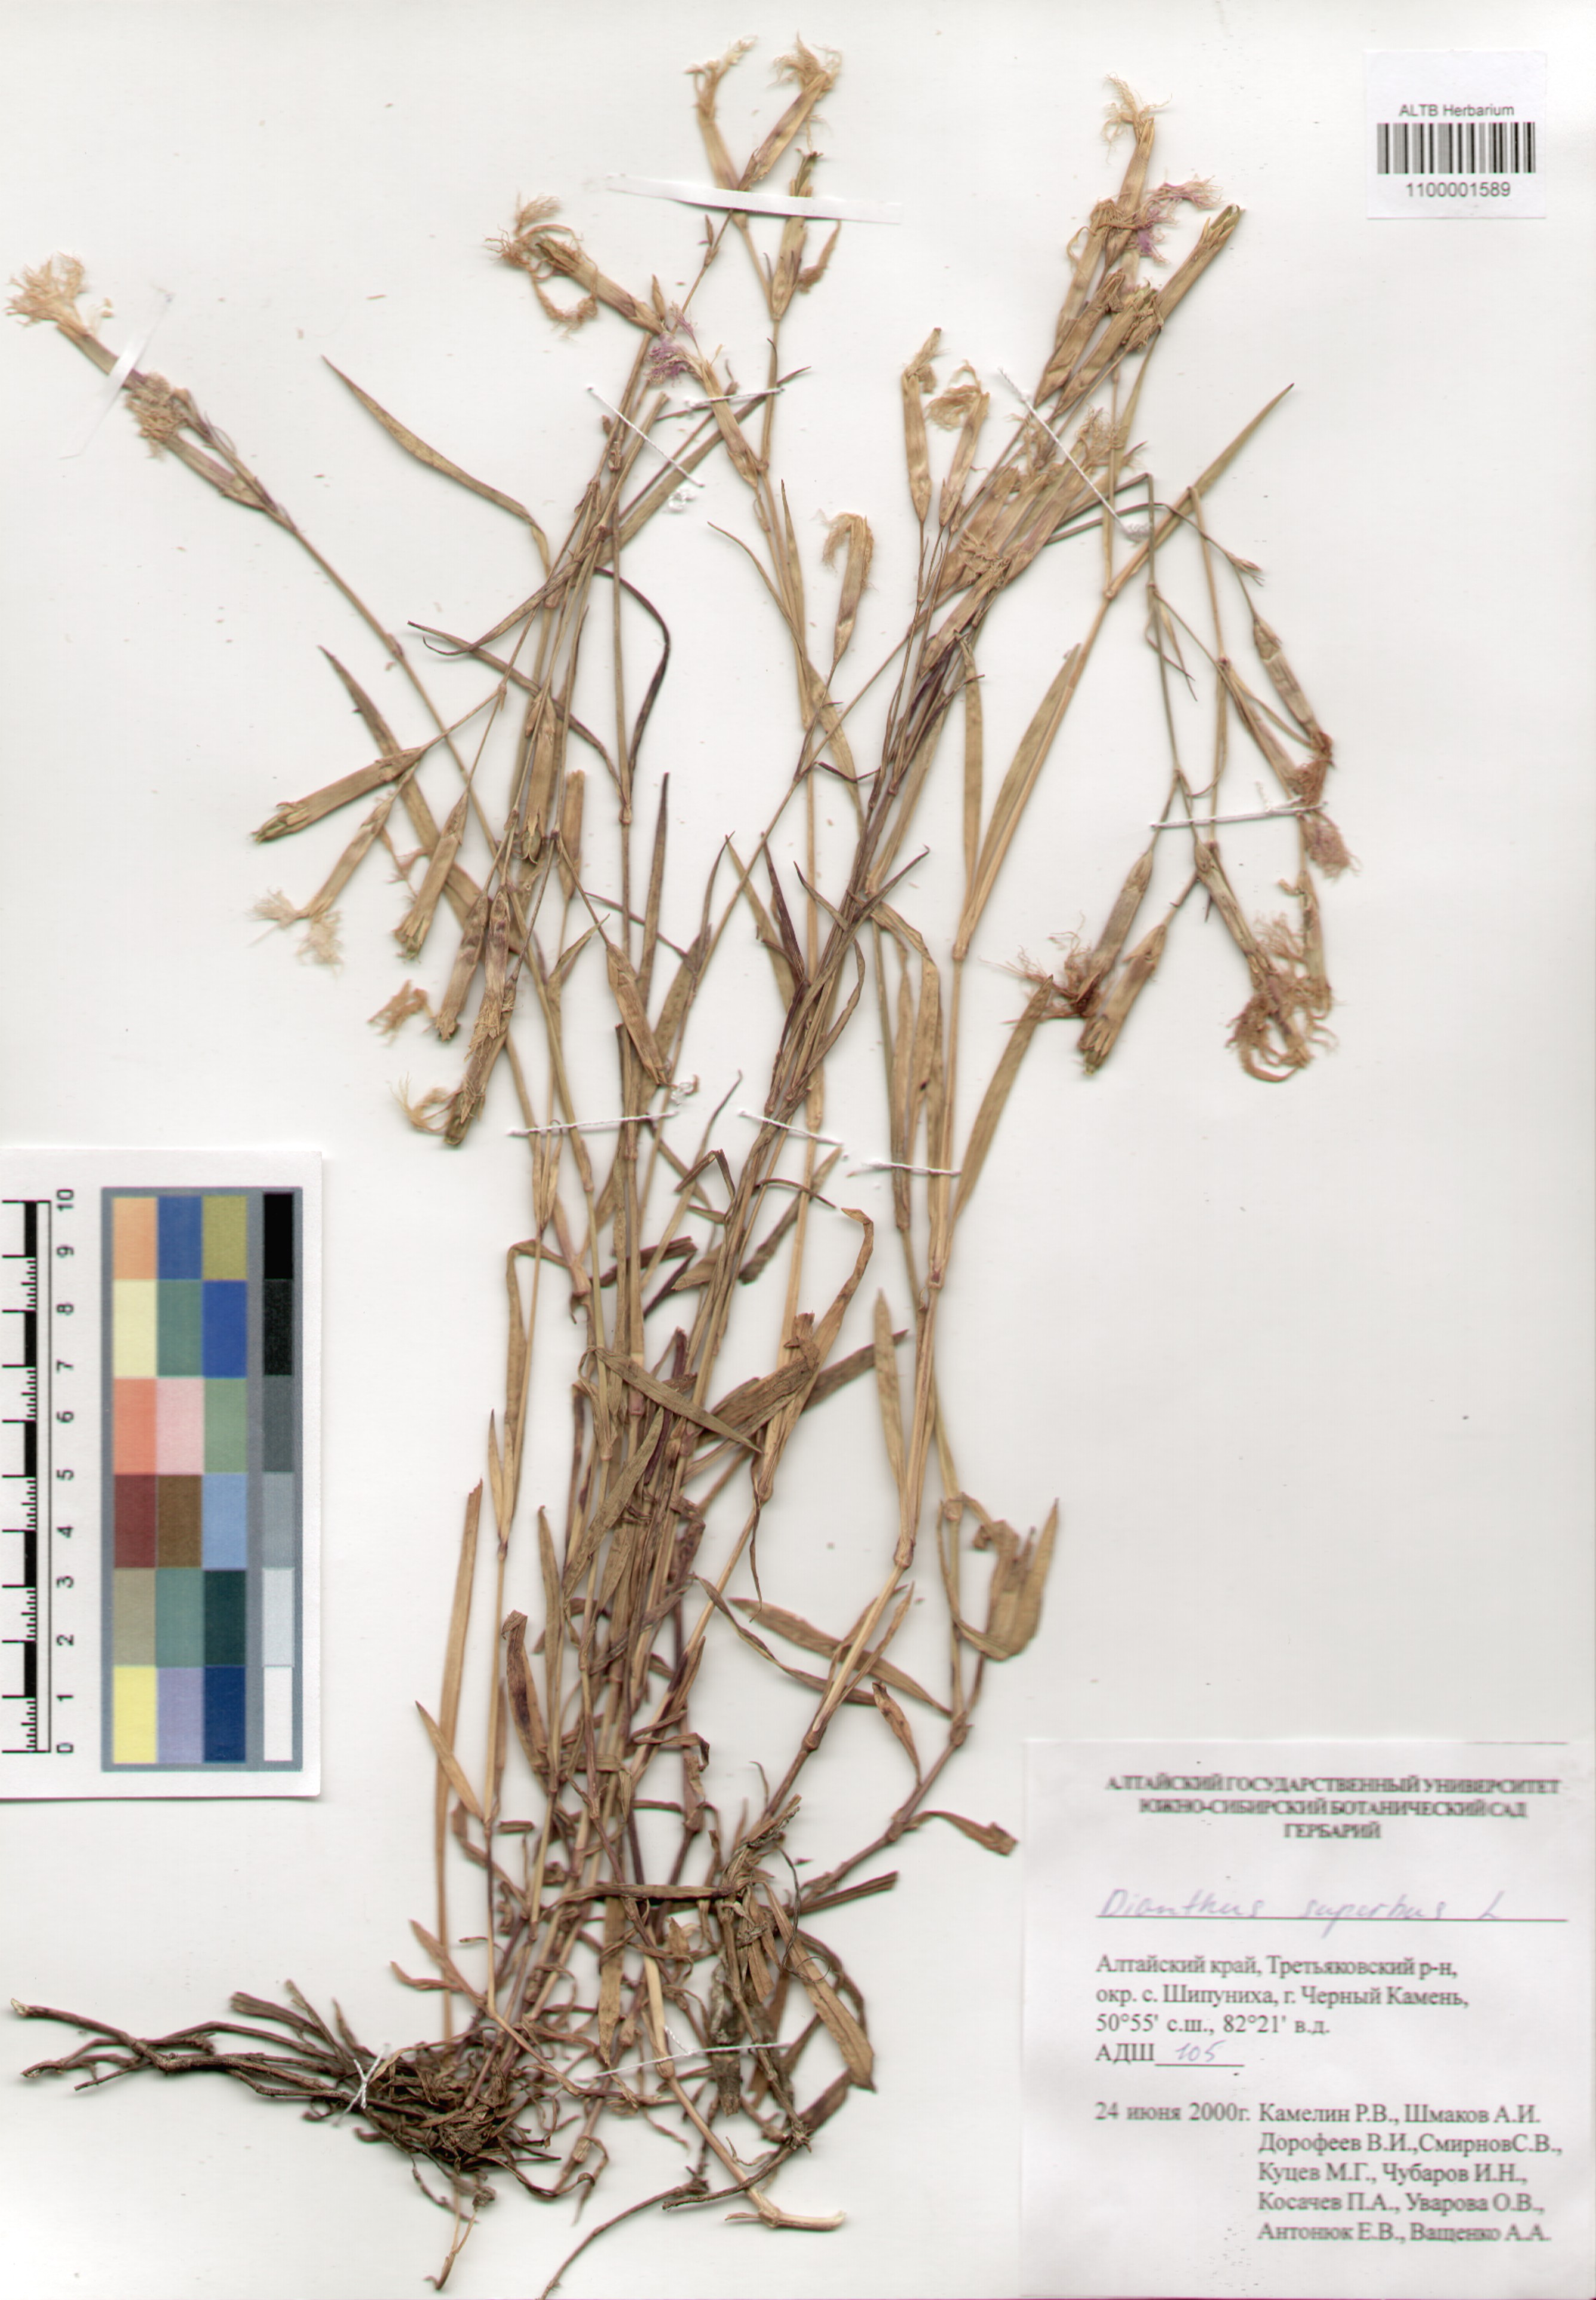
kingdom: Plantae
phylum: Tracheophyta
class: Magnoliopsida
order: Caryophyllales
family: Caryophyllaceae
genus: Dianthus
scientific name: Dianthus superbus
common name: Fringed pink
